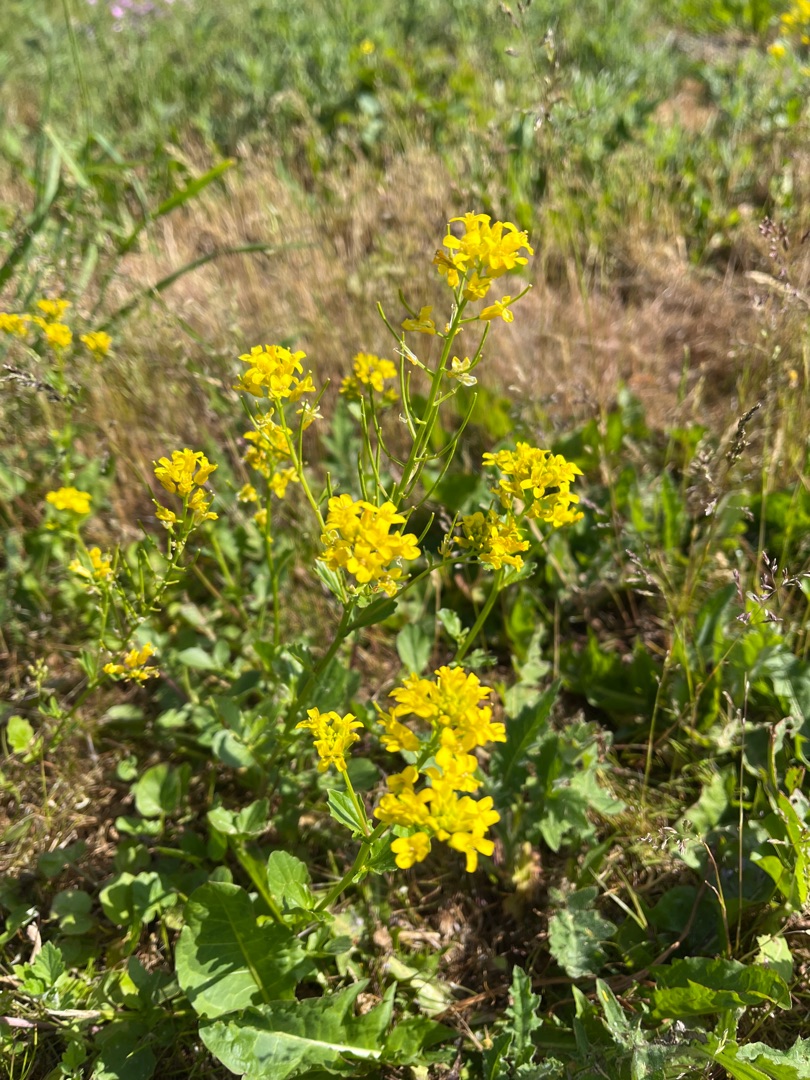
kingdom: Plantae
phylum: Tracheophyta
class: Magnoliopsida
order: Brassicales
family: Brassicaceae
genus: Barbarea
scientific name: Barbarea vulgaris
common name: Udspærret vinterkarse
